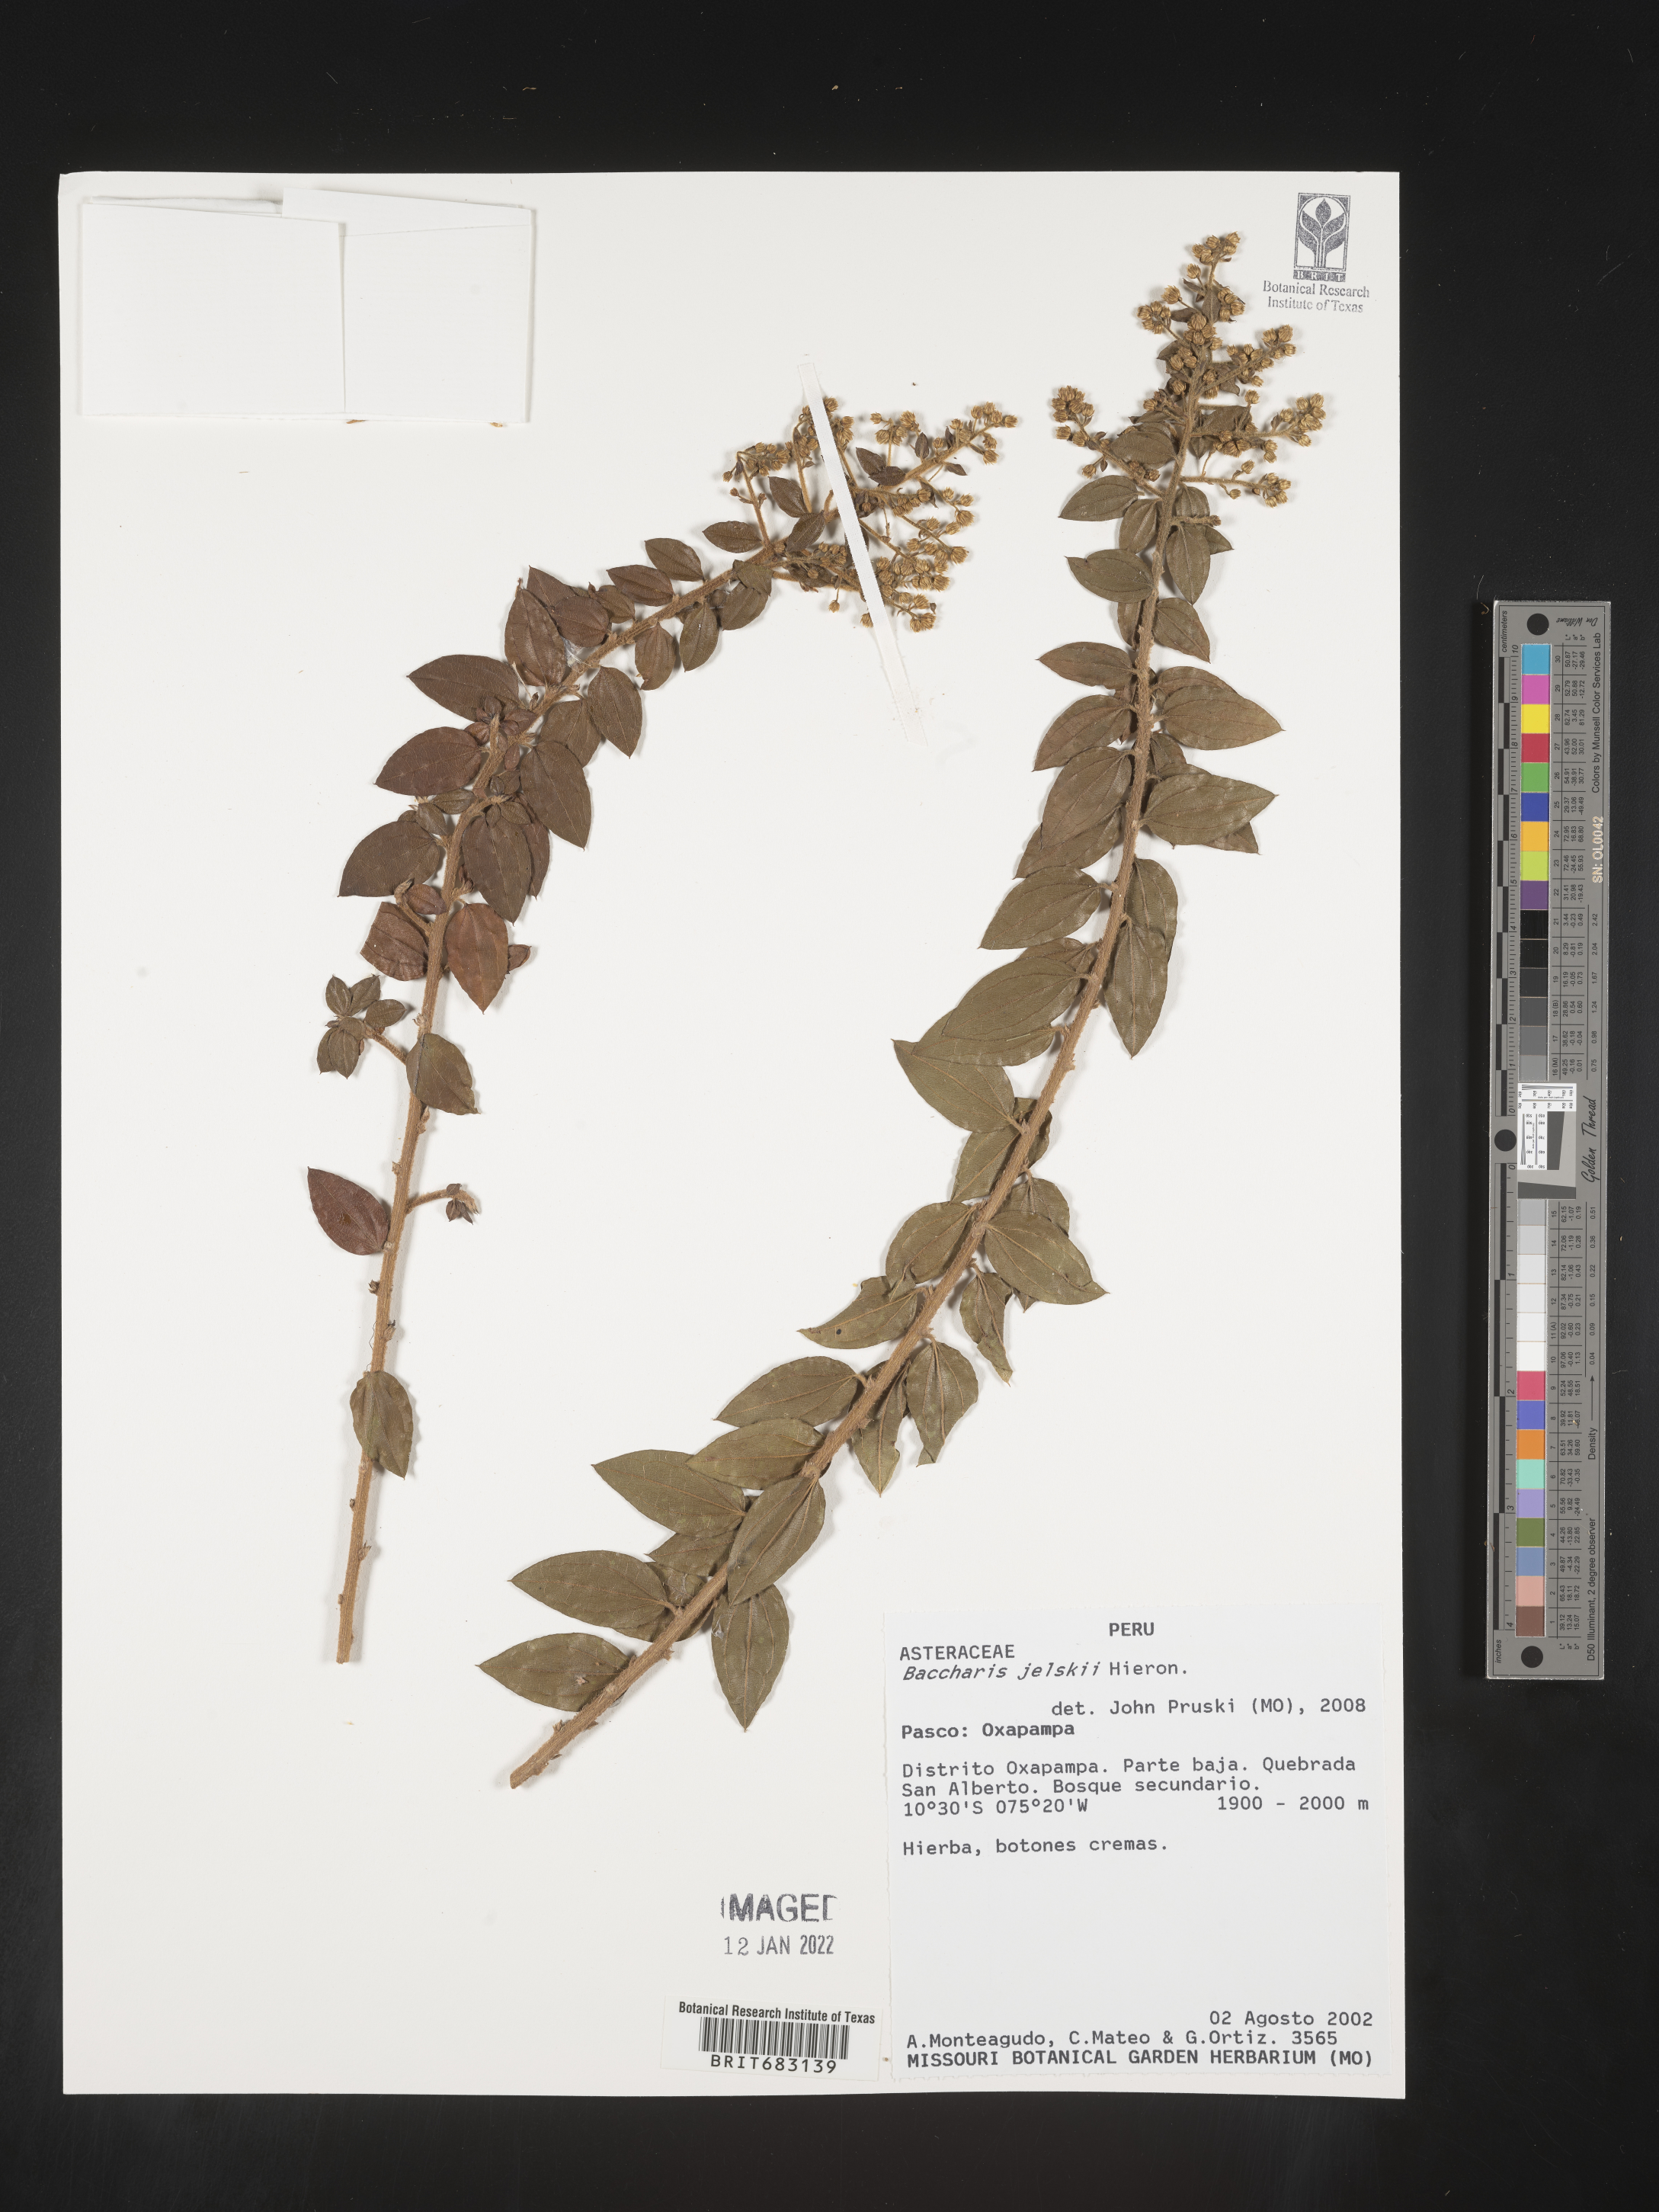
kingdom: Plantae
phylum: Tracheophyta
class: Magnoliopsida
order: Asterales
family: Asteraceae
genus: Baccharis
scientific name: Baccharis
